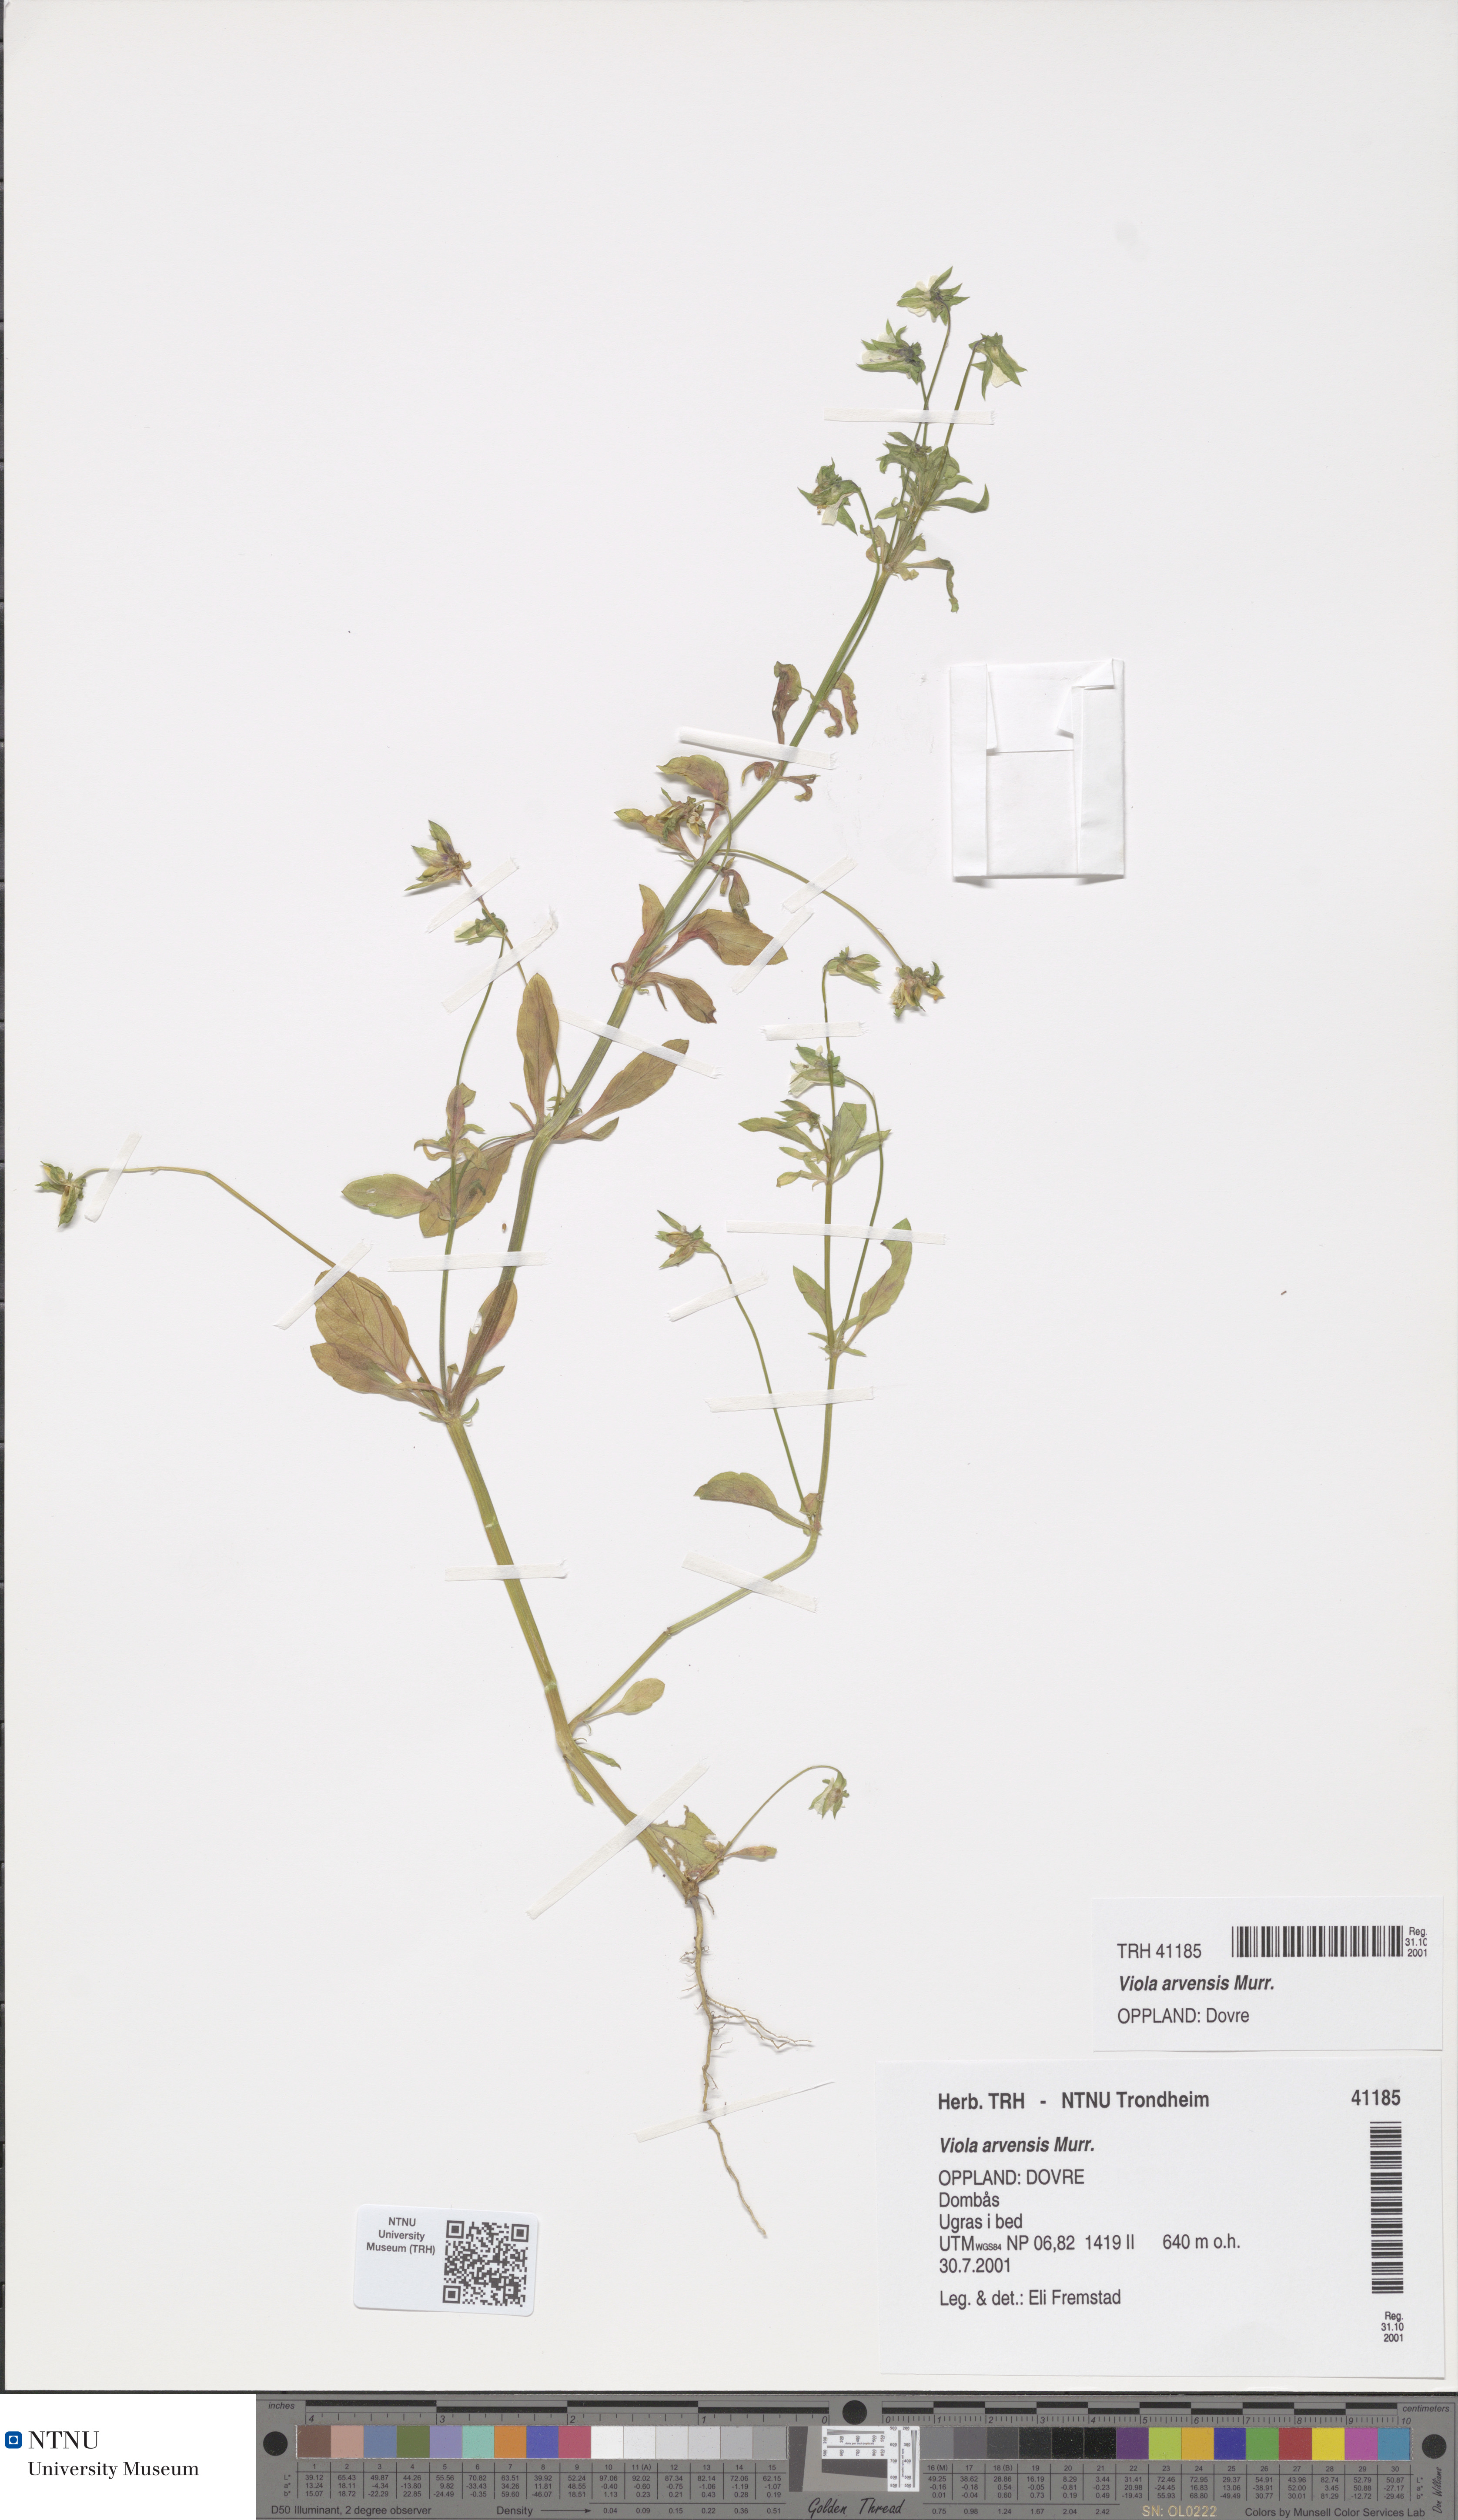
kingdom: Plantae
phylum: Tracheophyta
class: Magnoliopsida
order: Malpighiales
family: Violaceae
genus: Viola
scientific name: Viola arvensis
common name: Field pansy
